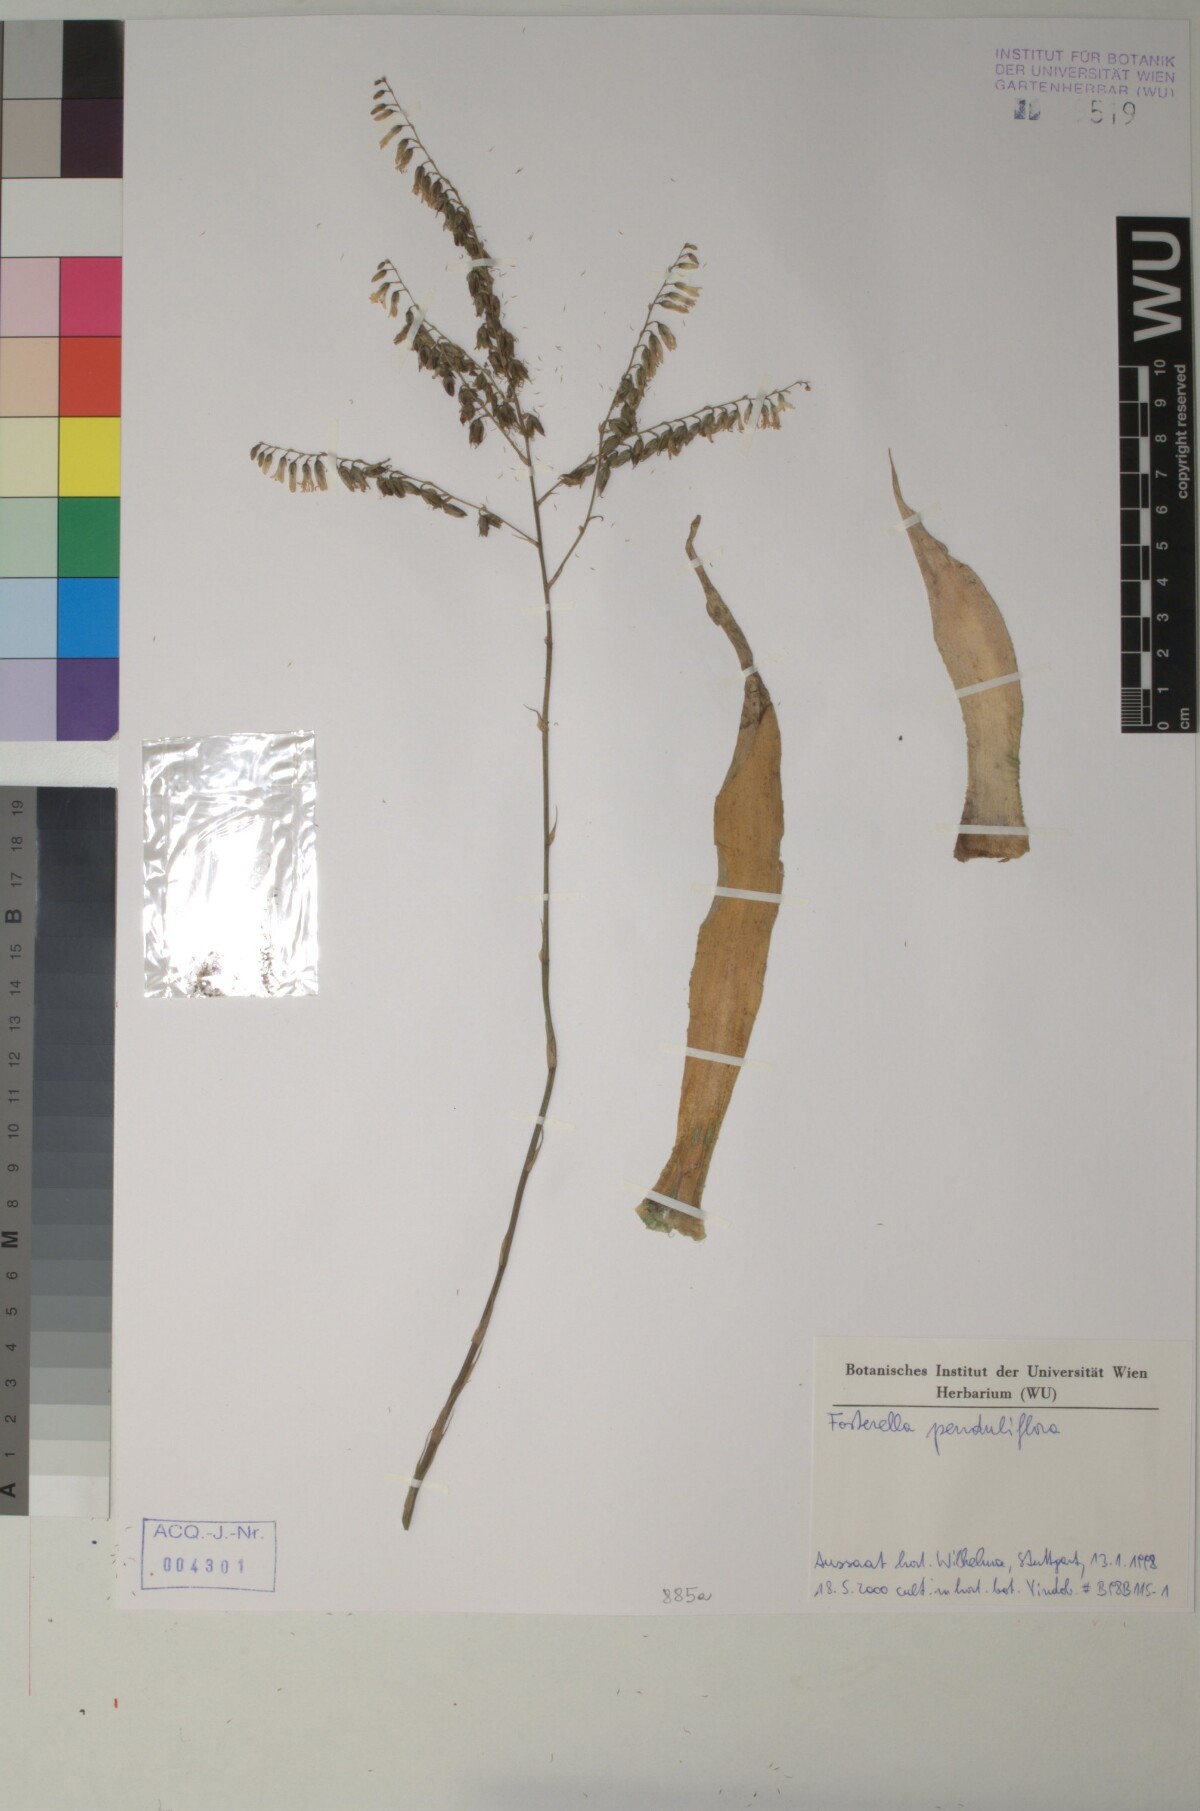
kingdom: Plantae
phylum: Tracheophyta
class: Liliopsida
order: Poales
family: Bromeliaceae
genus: Fosterella
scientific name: Fosterella penduliflora
